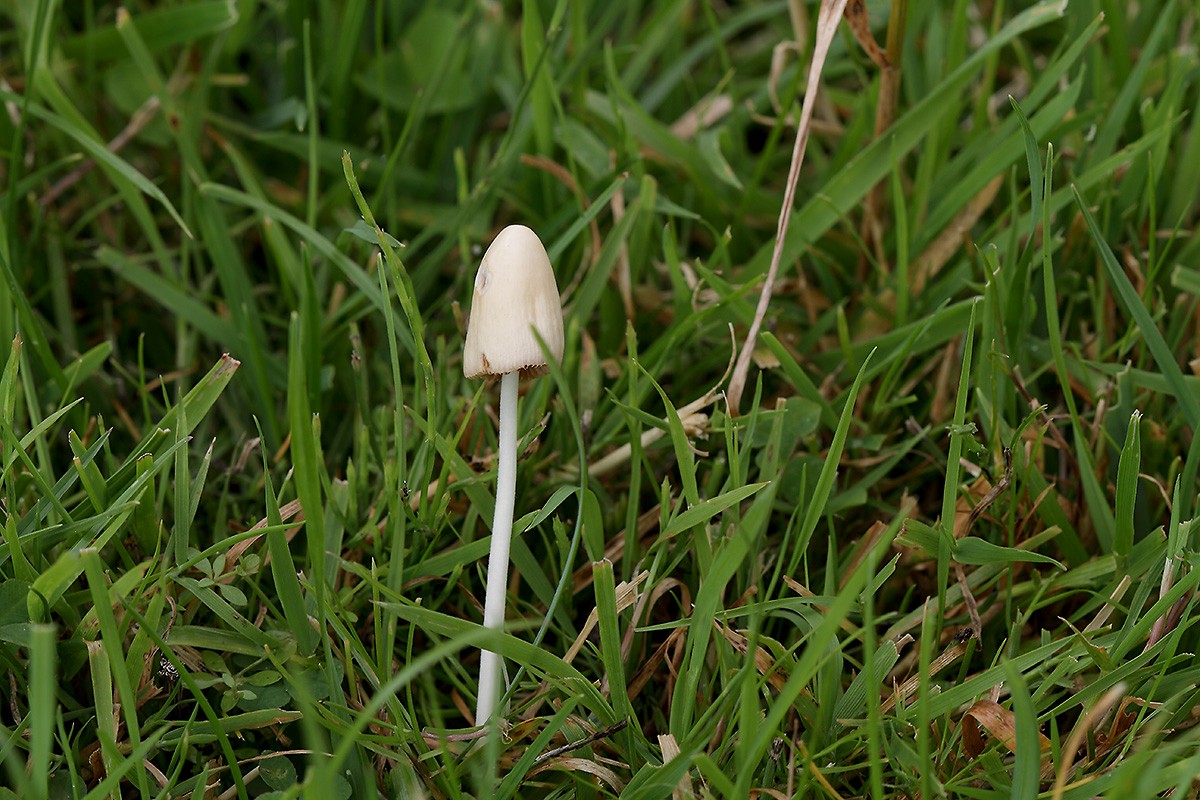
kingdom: Fungi
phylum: Basidiomycota
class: Agaricomycetes
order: Agaricales
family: Bolbitiaceae
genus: Conocybe
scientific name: Conocybe apala
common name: mælkehvid keglehat
